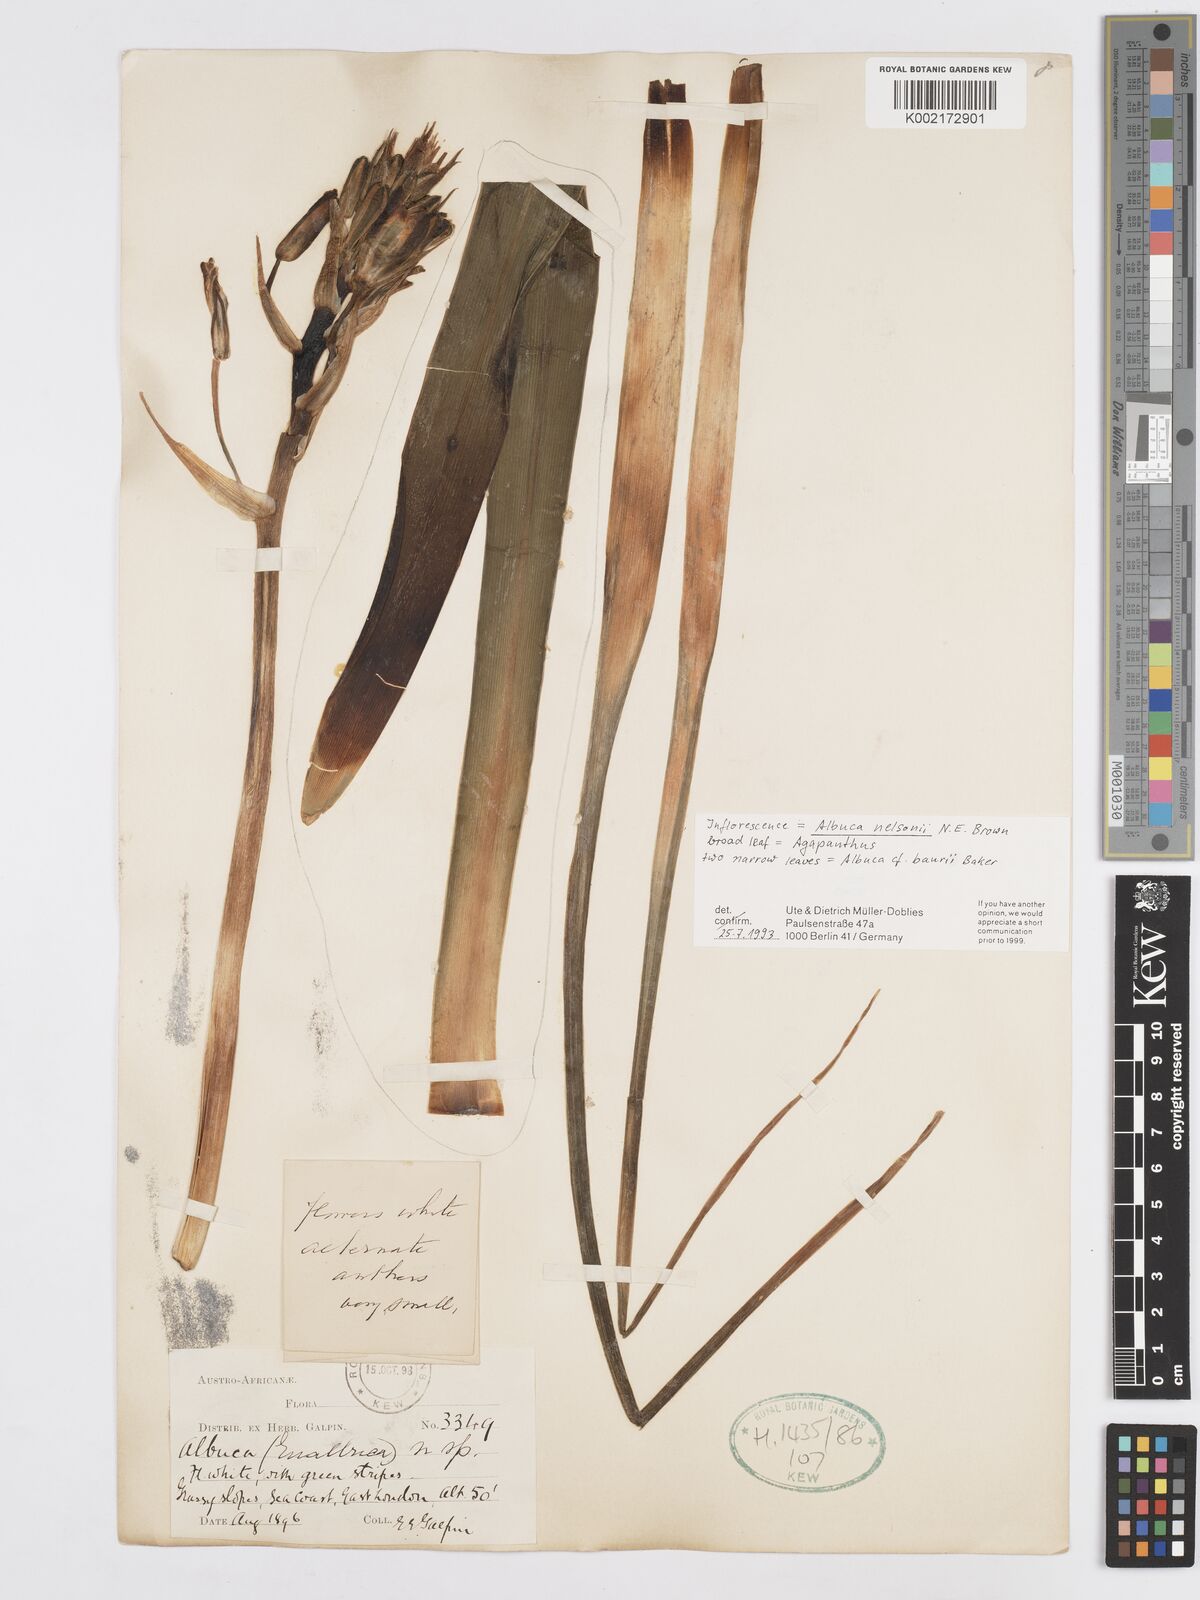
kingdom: Plantae
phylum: Tracheophyta
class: Liliopsida
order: Asparagales
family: Asparagaceae
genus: Albuca
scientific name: Albuca nelsonii
